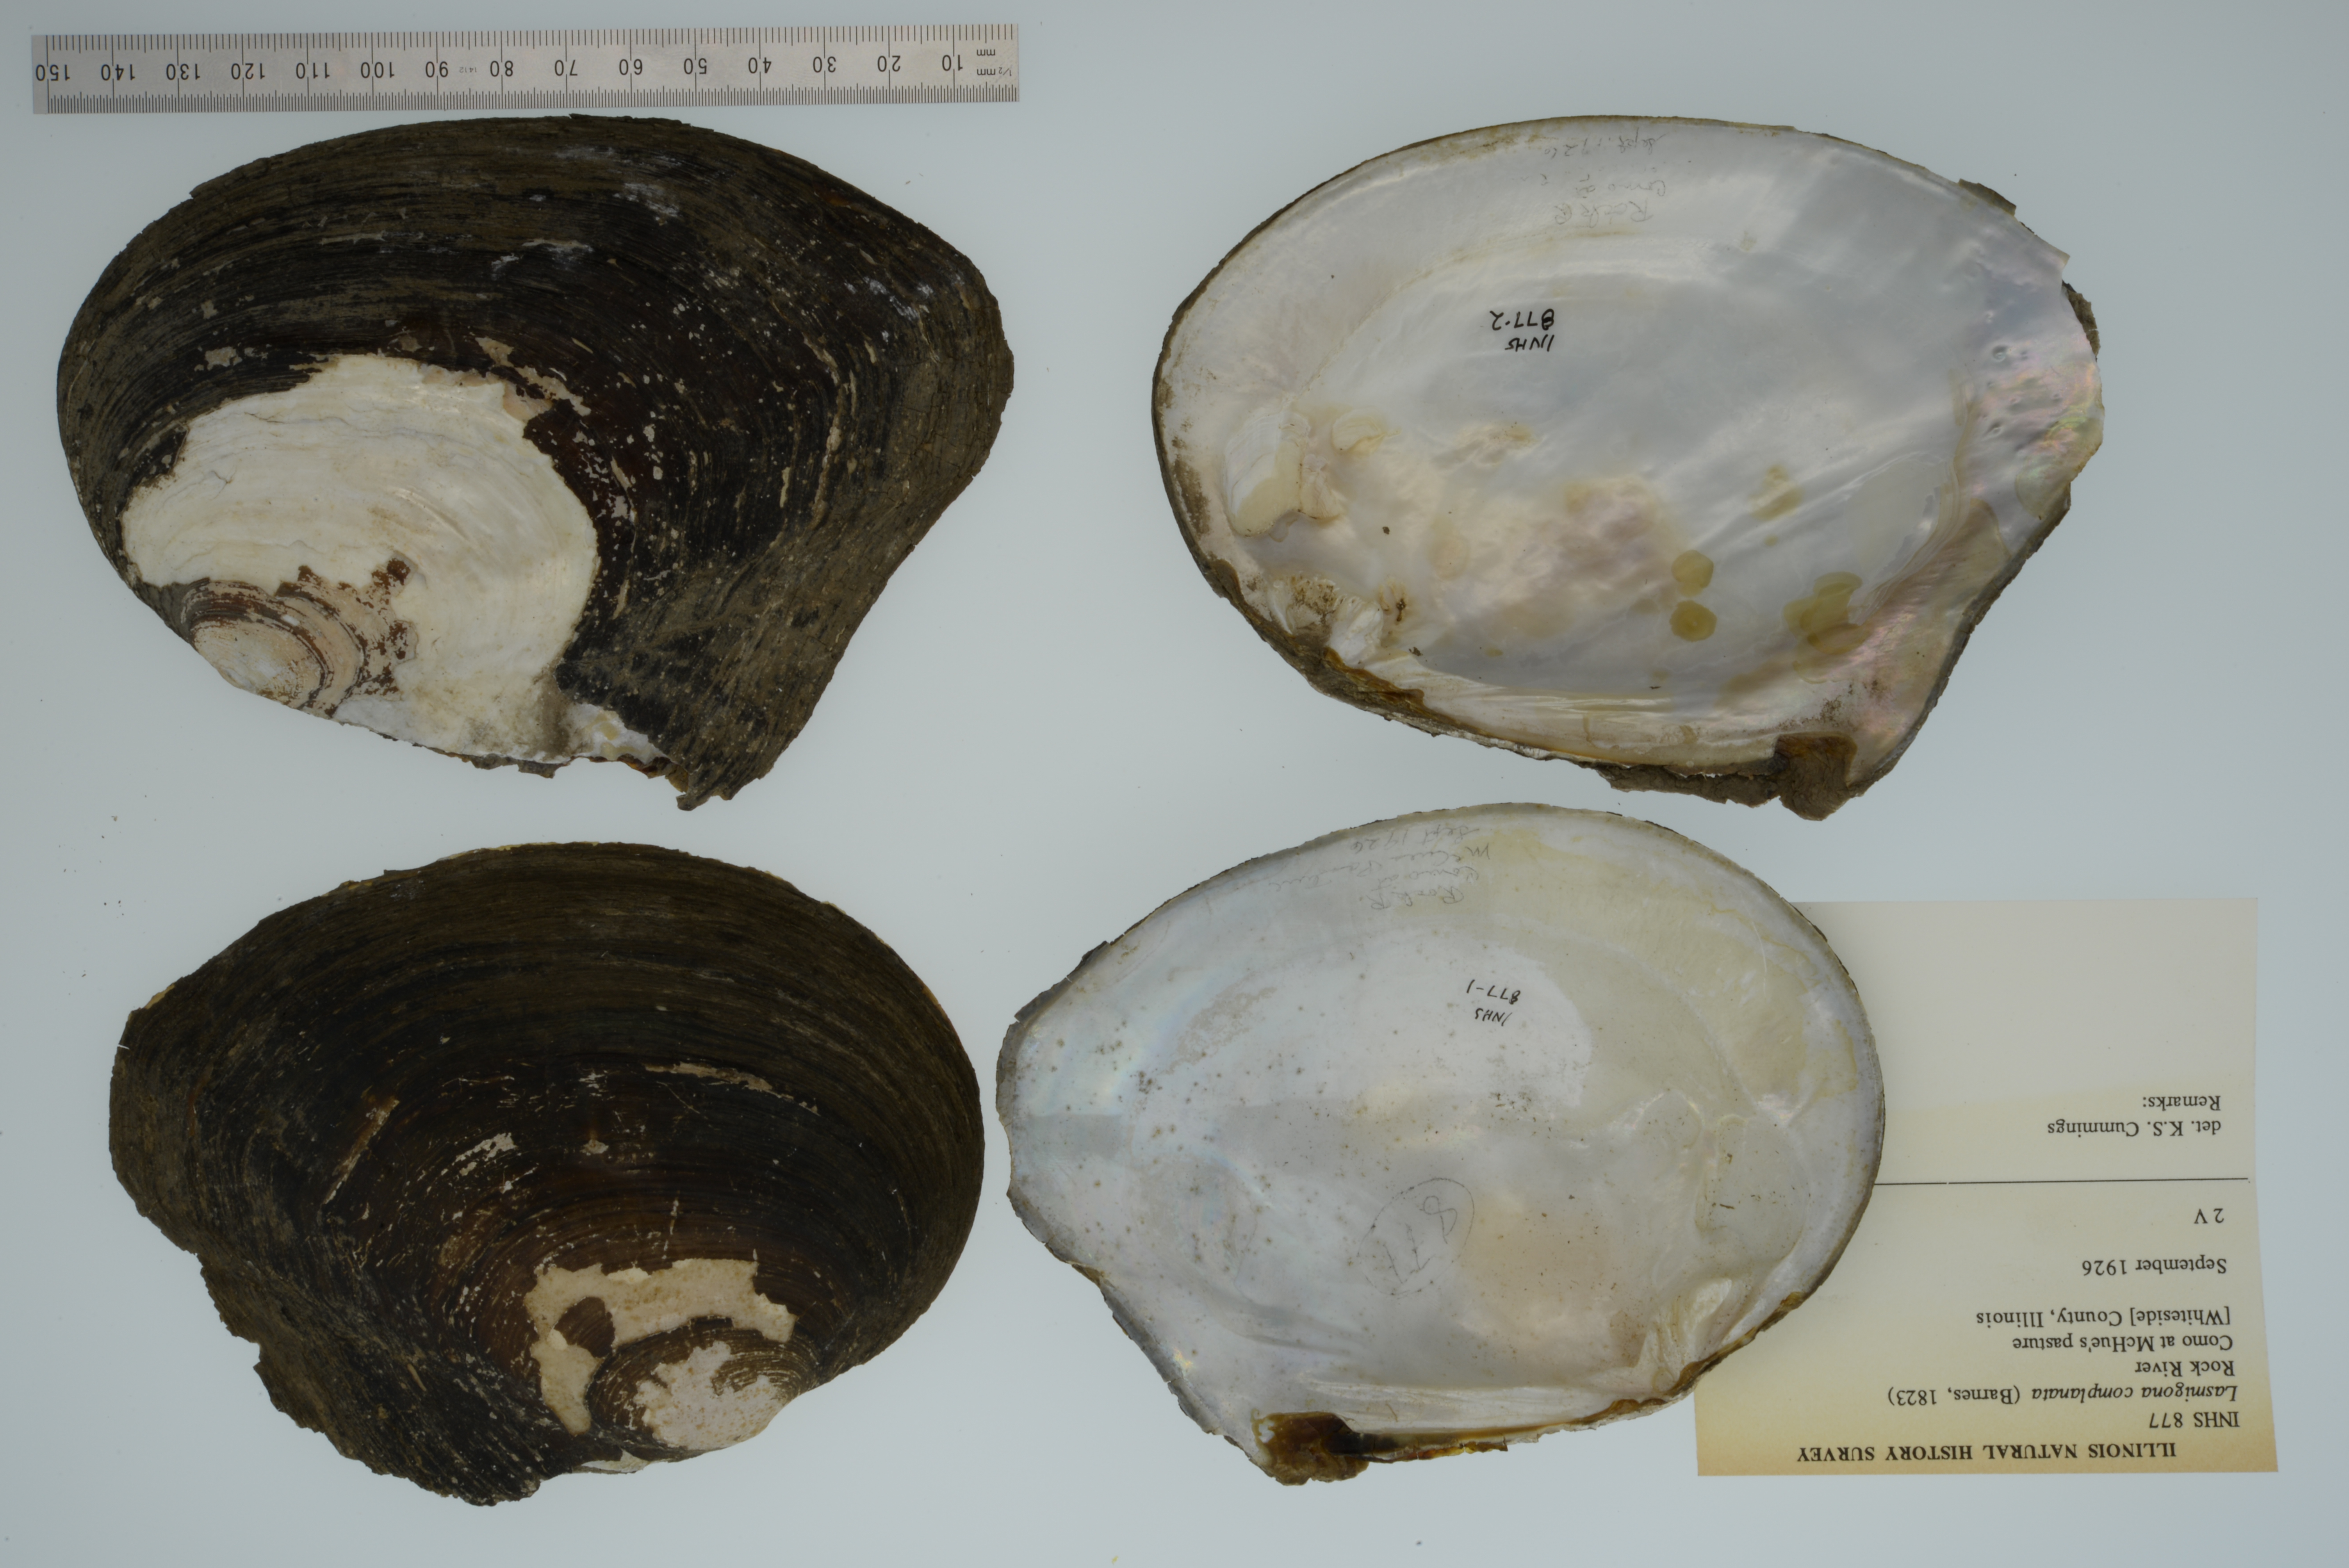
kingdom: Animalia
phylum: Mollusca
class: Bivalvia
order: Unionida
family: Unionidae
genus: Lasmigona
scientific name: Lasmigona complanata
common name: White heelsplitter
